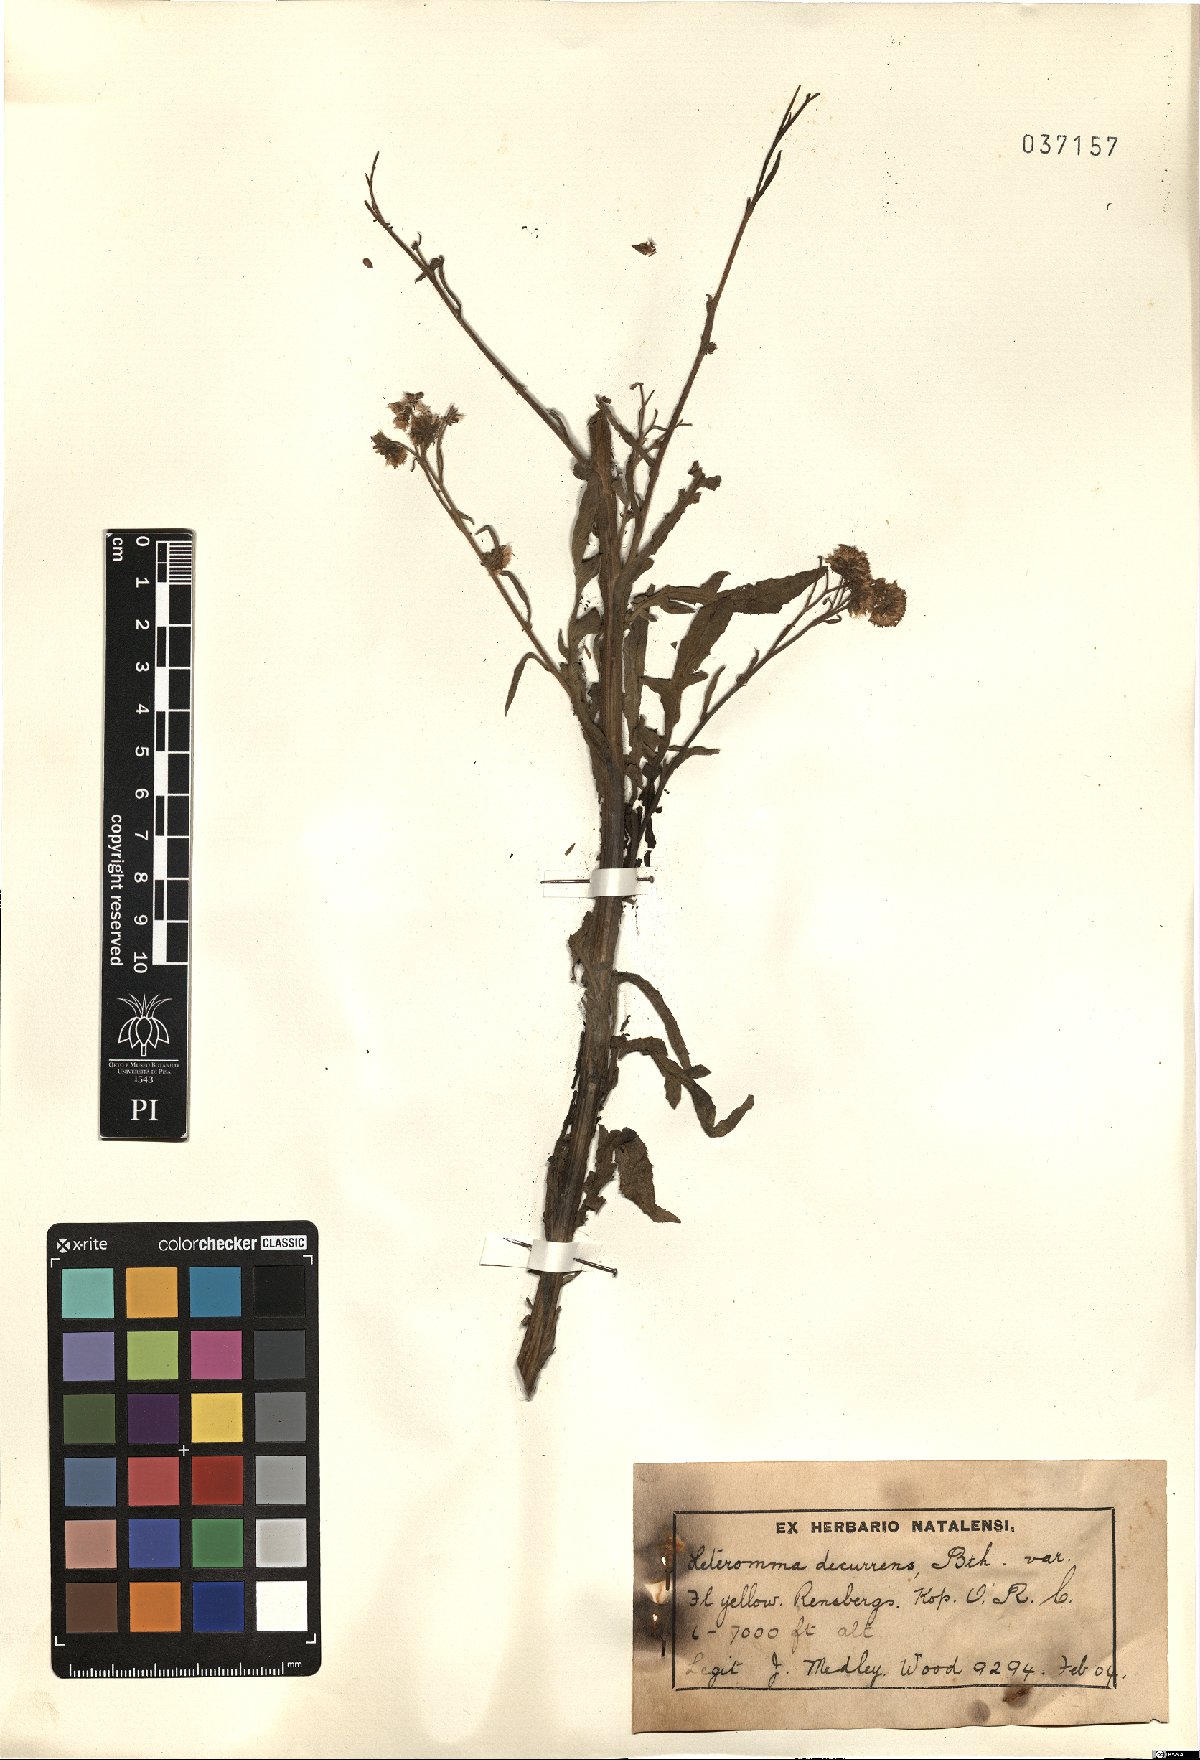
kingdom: Plantae
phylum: Tracheophyta
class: Magnoliopsida
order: Asterales
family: Asteraceae
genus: Heteromma
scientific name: Heteromma decurrens
